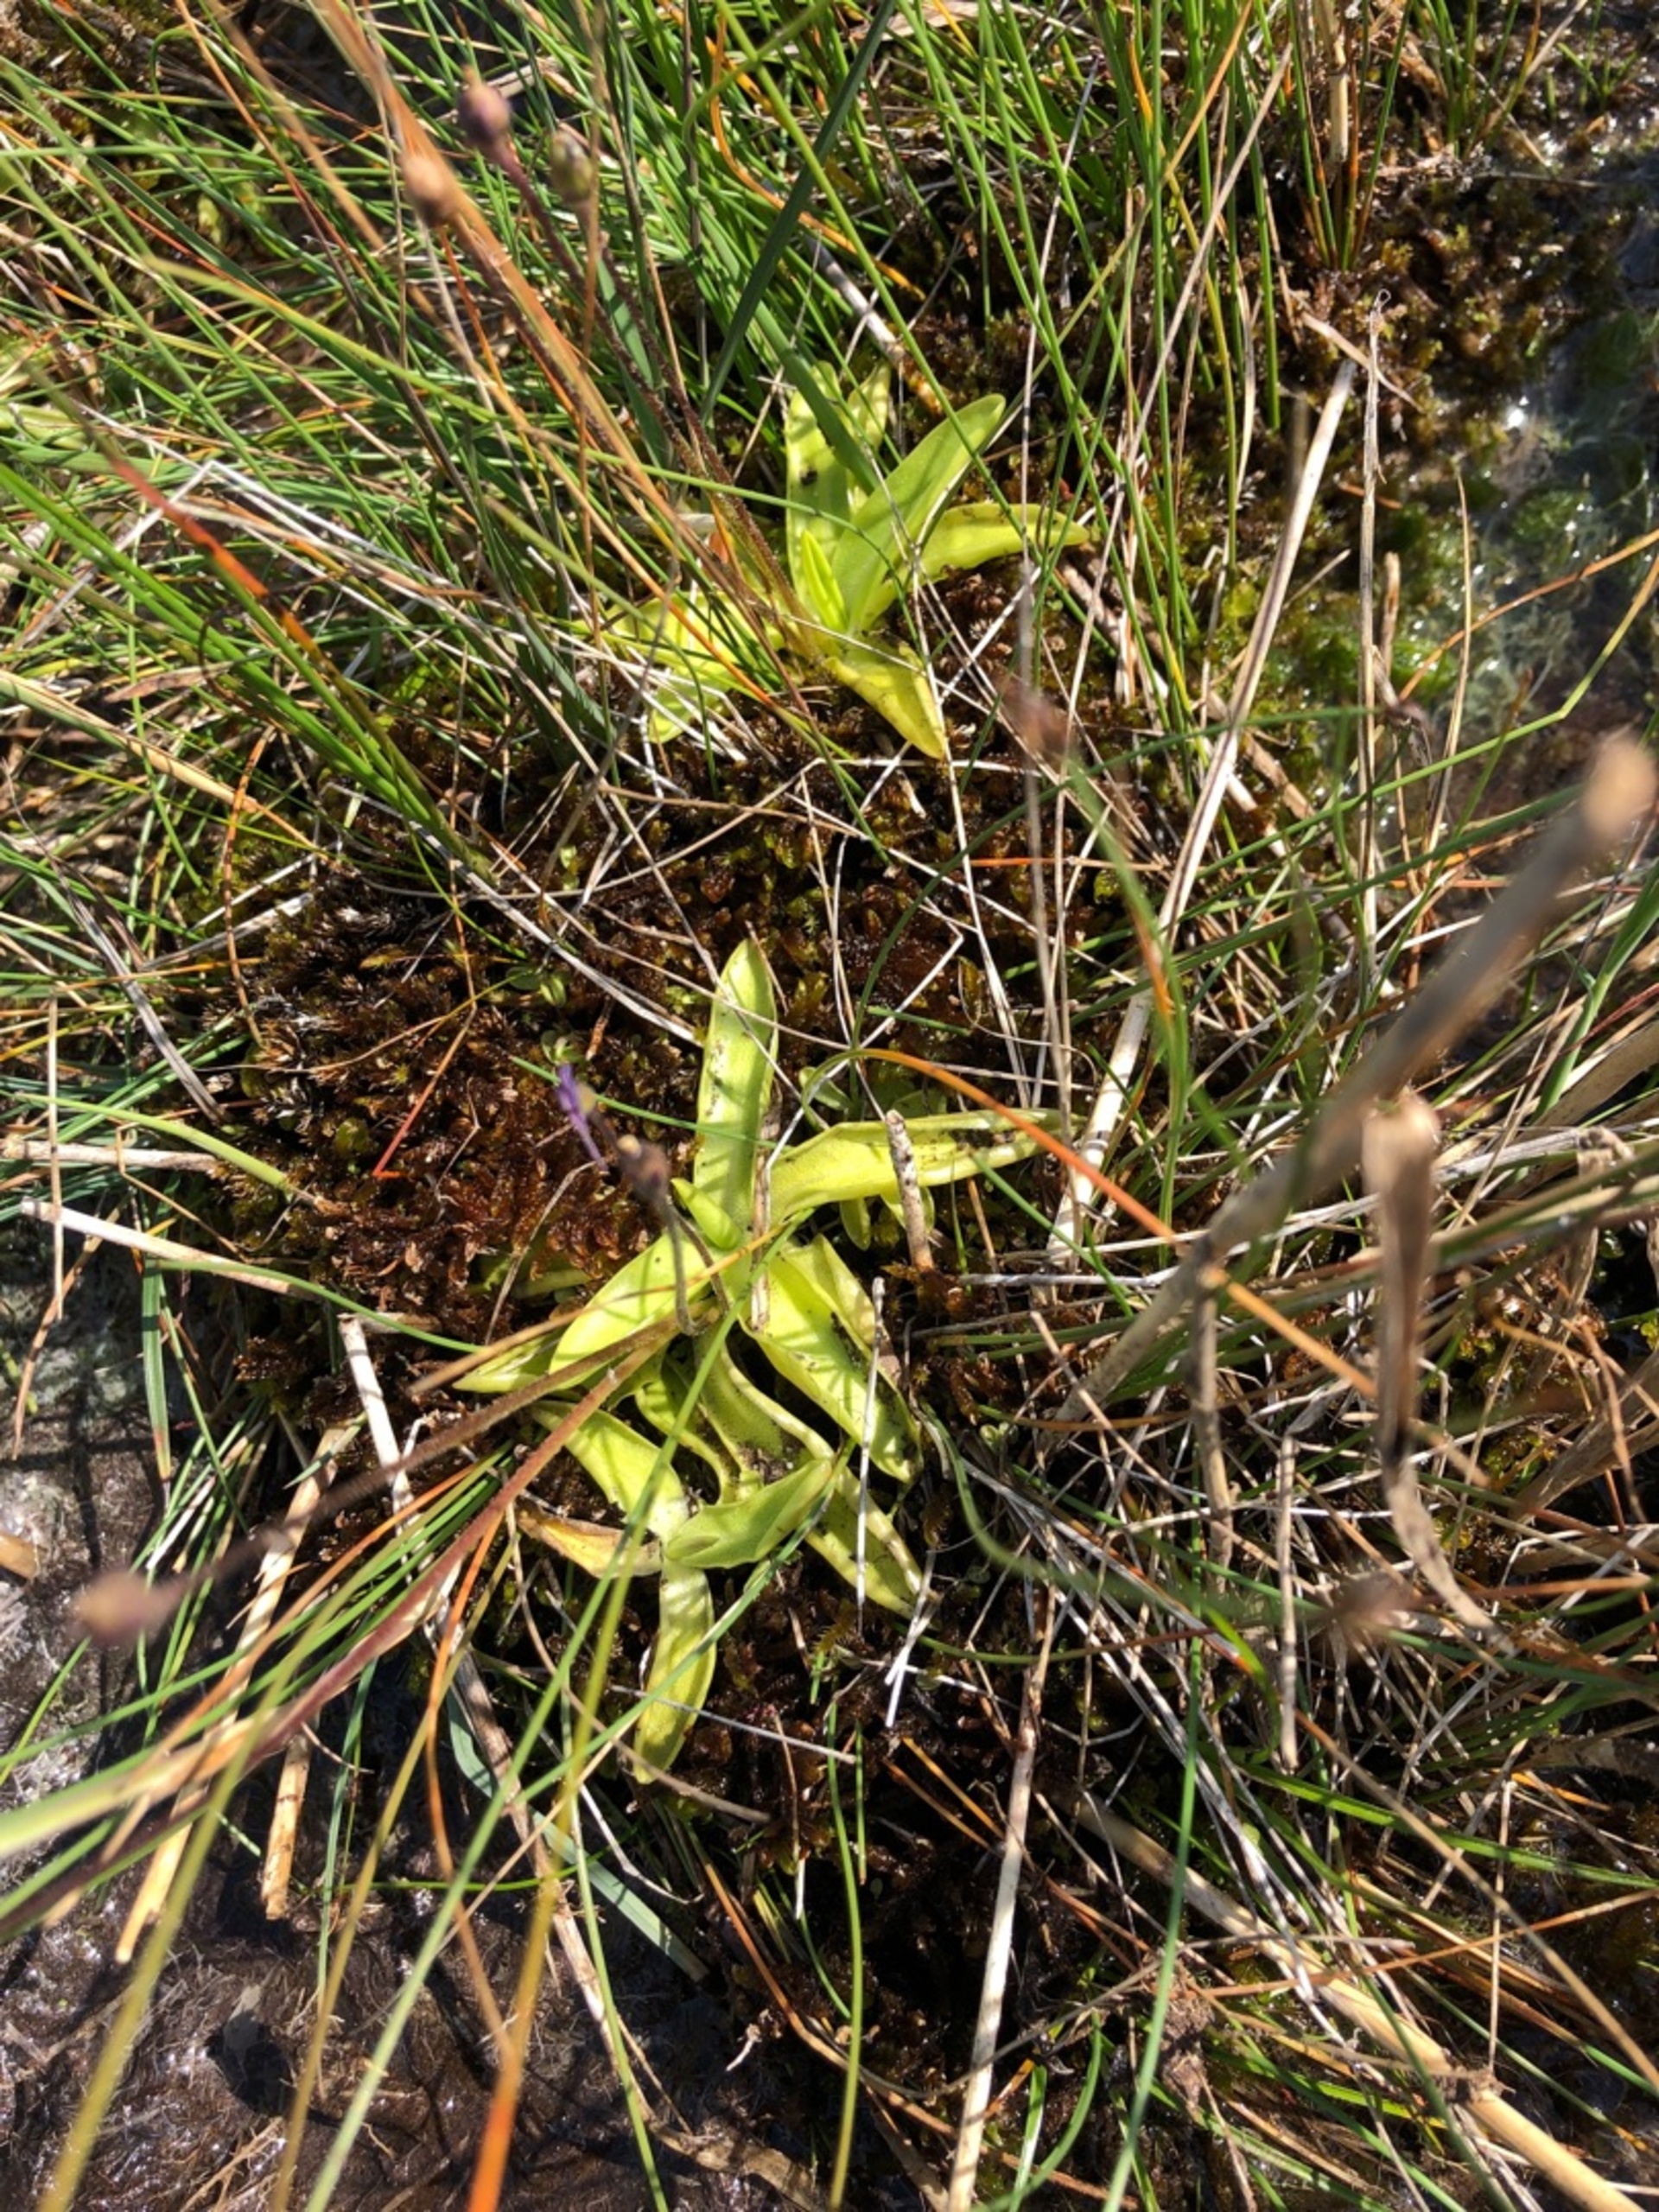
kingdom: Plantae
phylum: Tracheophyta
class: Magnoliopsida
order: Lamiales
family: Lentibulariaceae
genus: Pinguicula
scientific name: Pinguicula vulgaris
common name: Vibefedt
